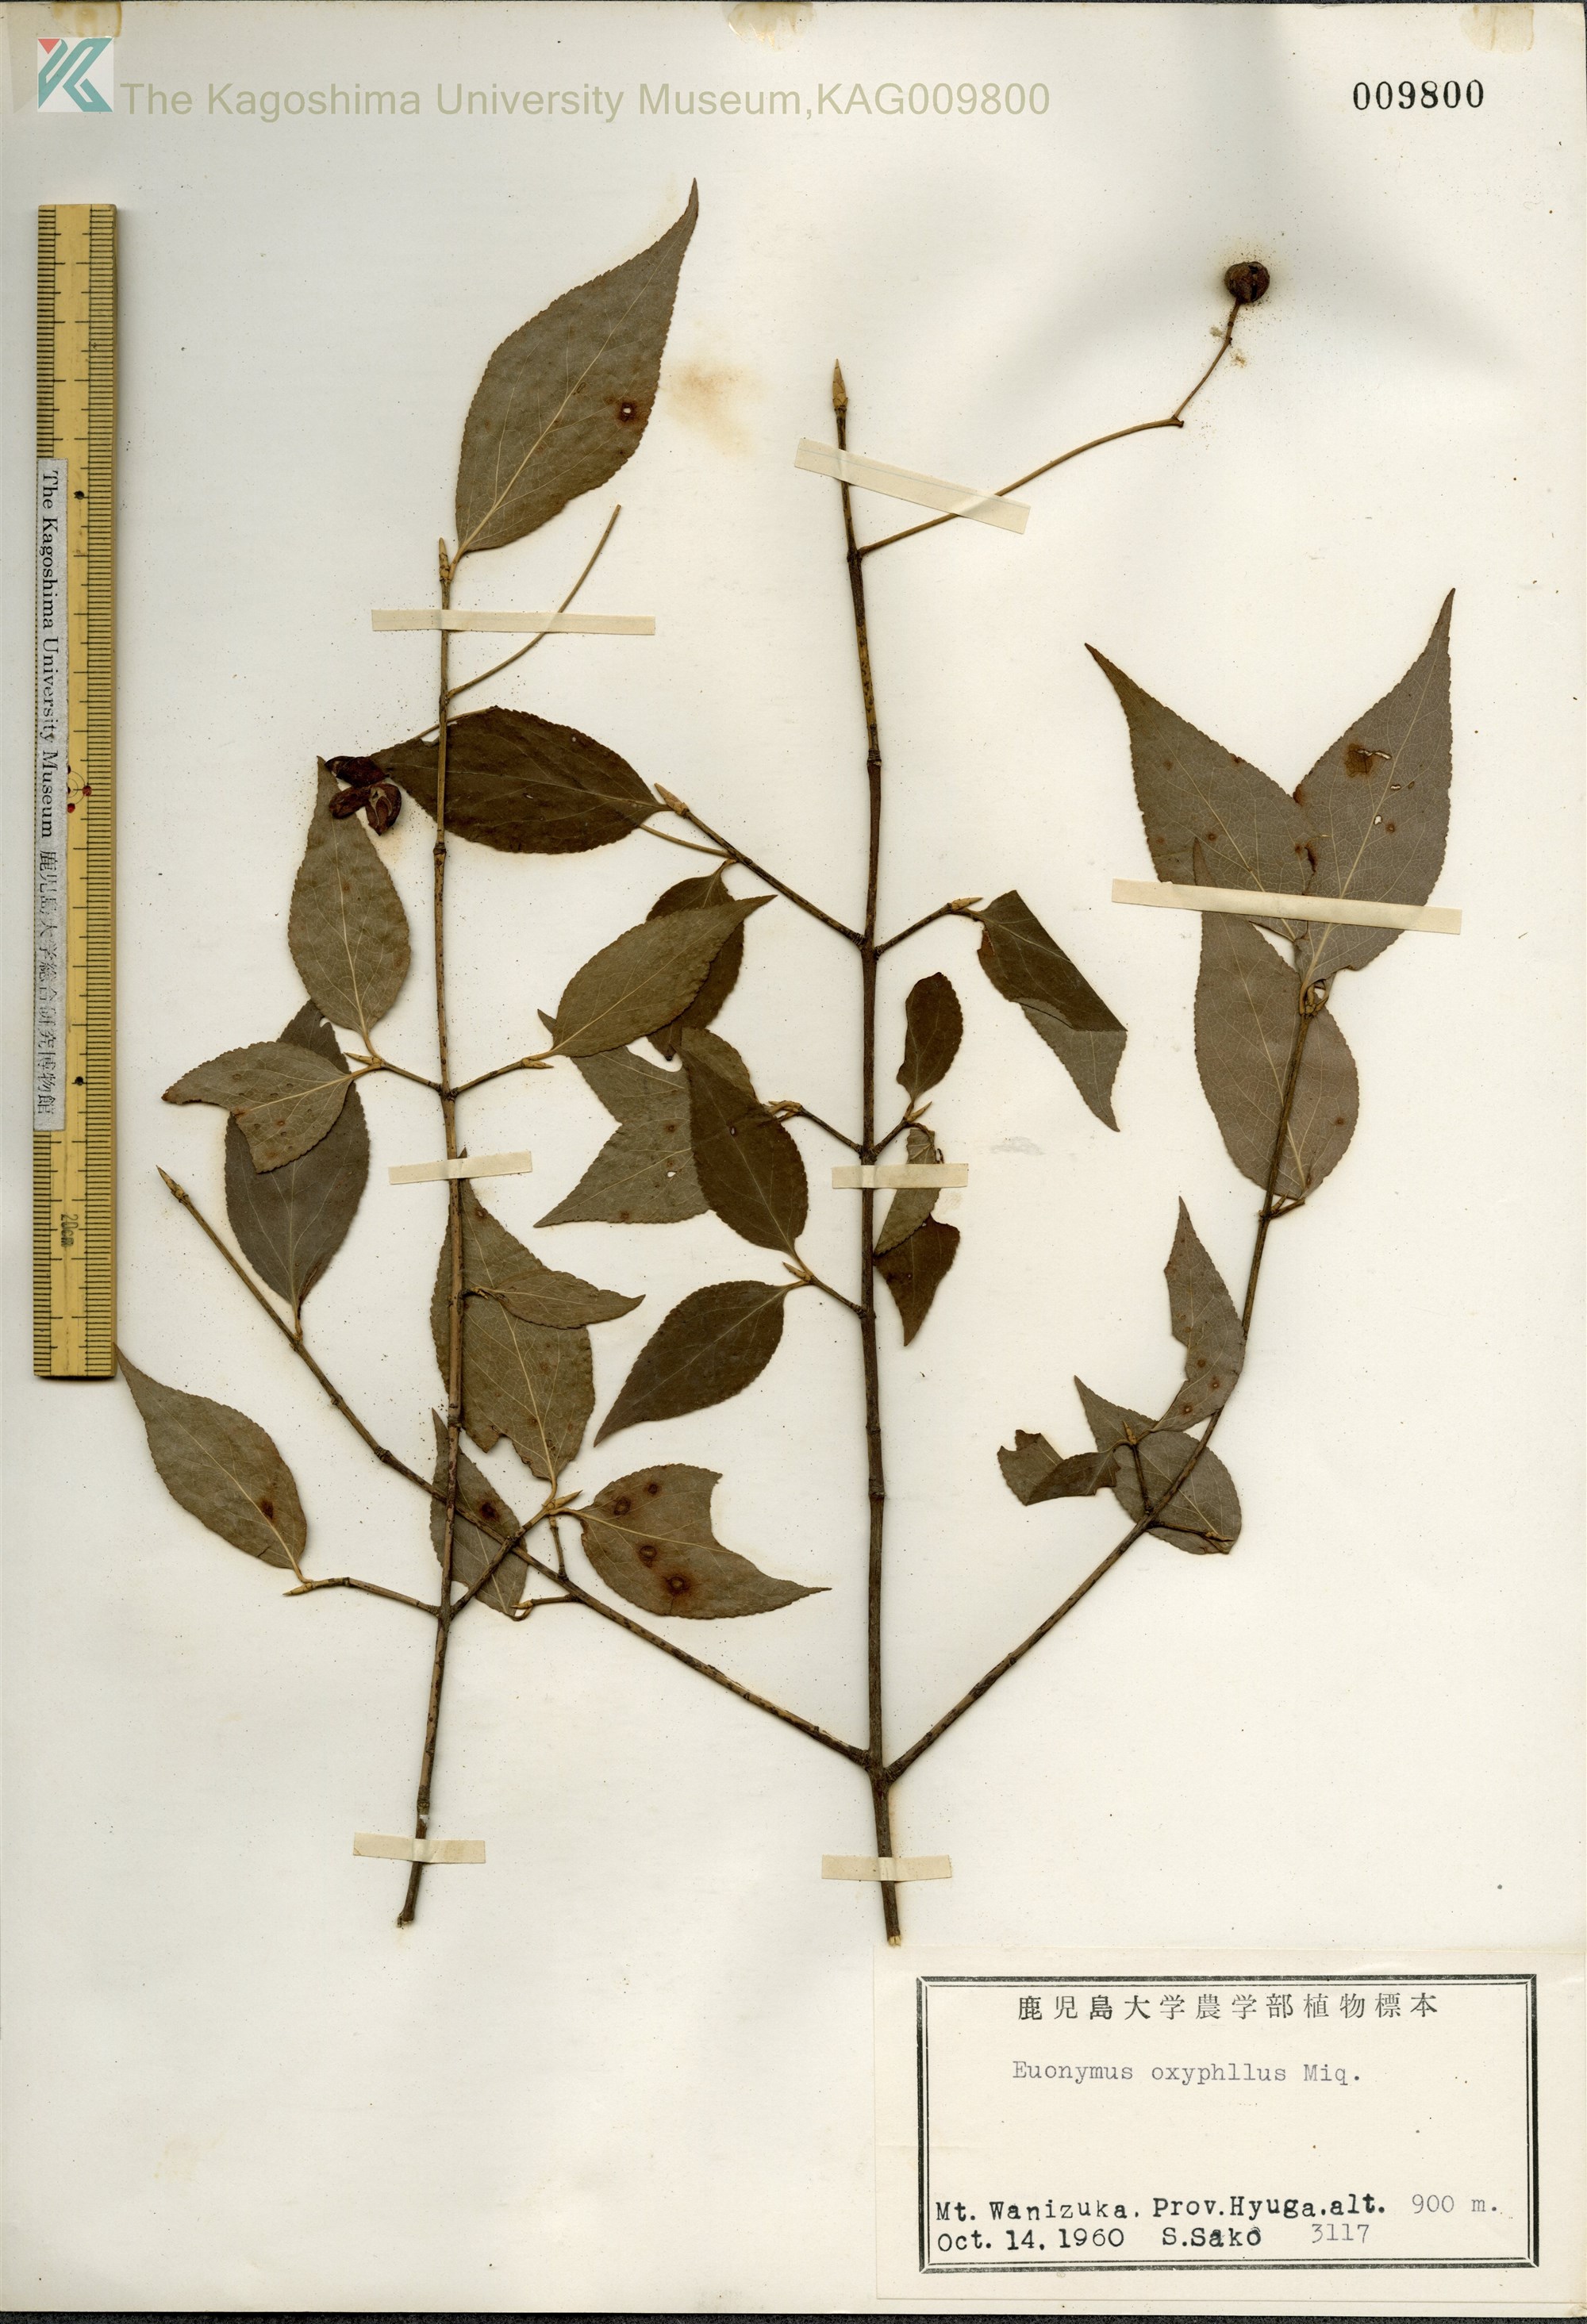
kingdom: Plantae
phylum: Tracheophyta
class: Magnoliopsida
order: Celastrales
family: Celastraceae
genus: Euonymus
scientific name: Euonymus oxyphyllus
